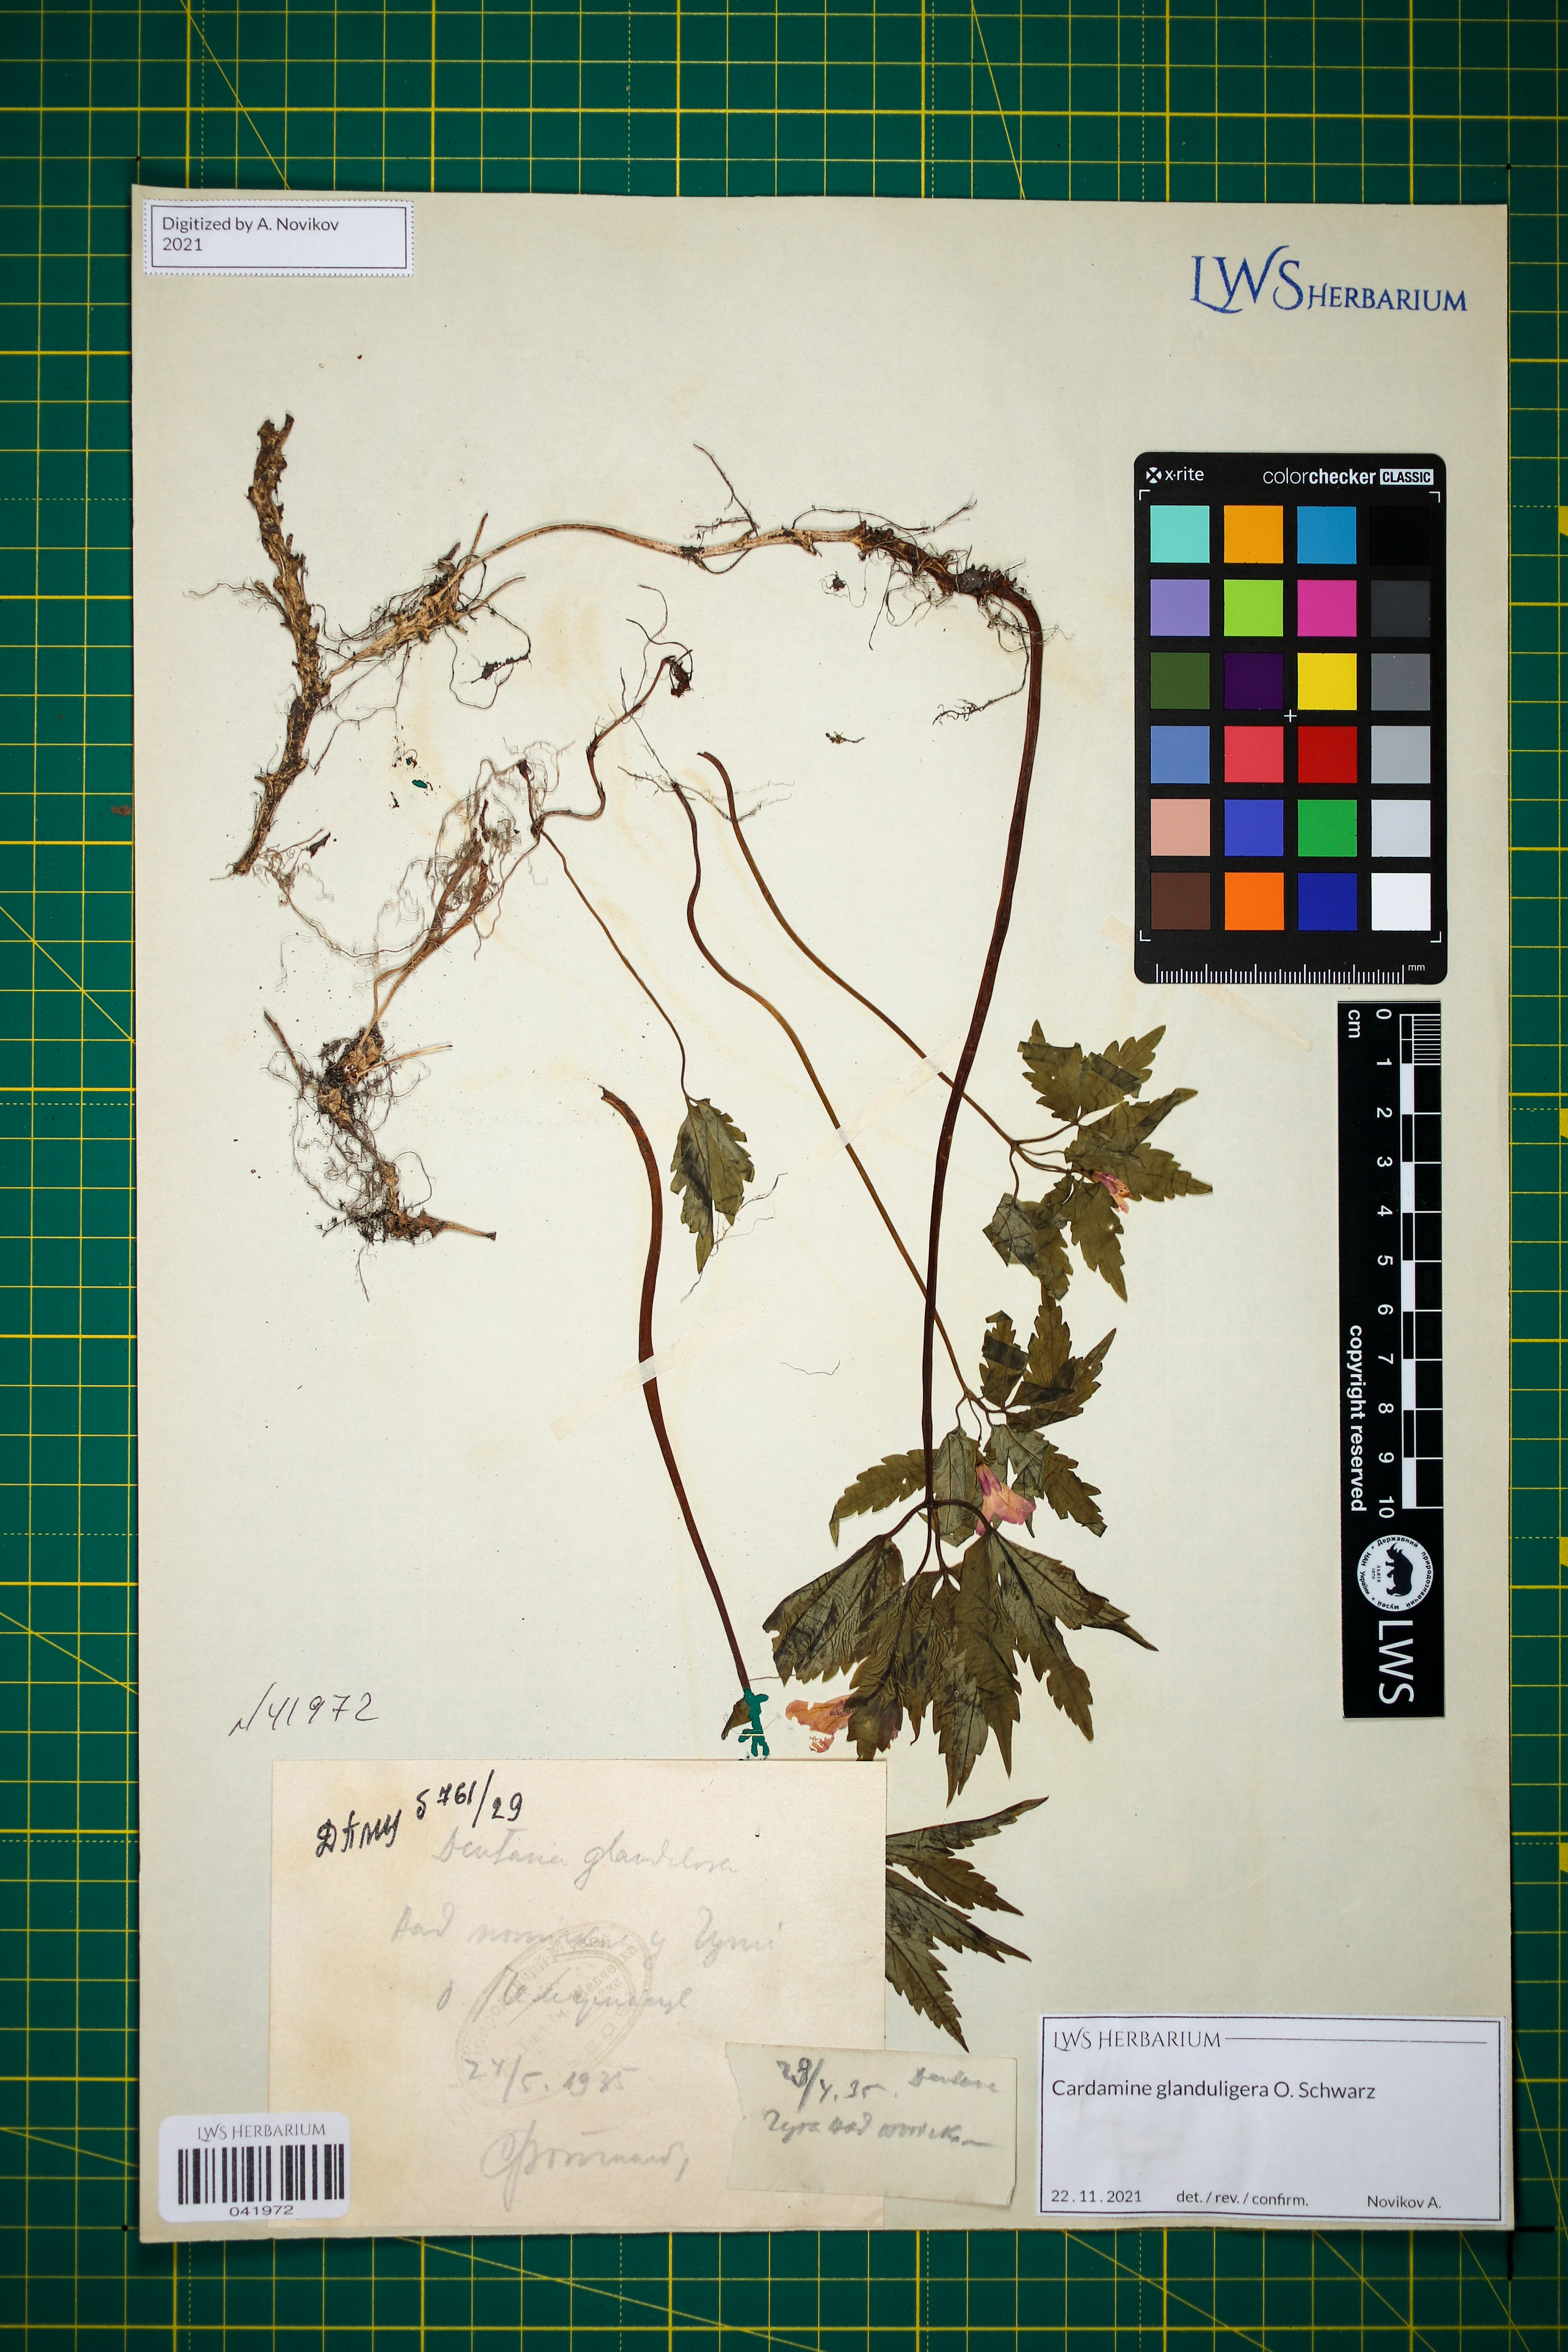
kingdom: Plantae
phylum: Tracheophyta
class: Magnoliopsida
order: Brassicales
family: Brassicaceae
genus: Cardamine
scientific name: Cardamine glanduligera
